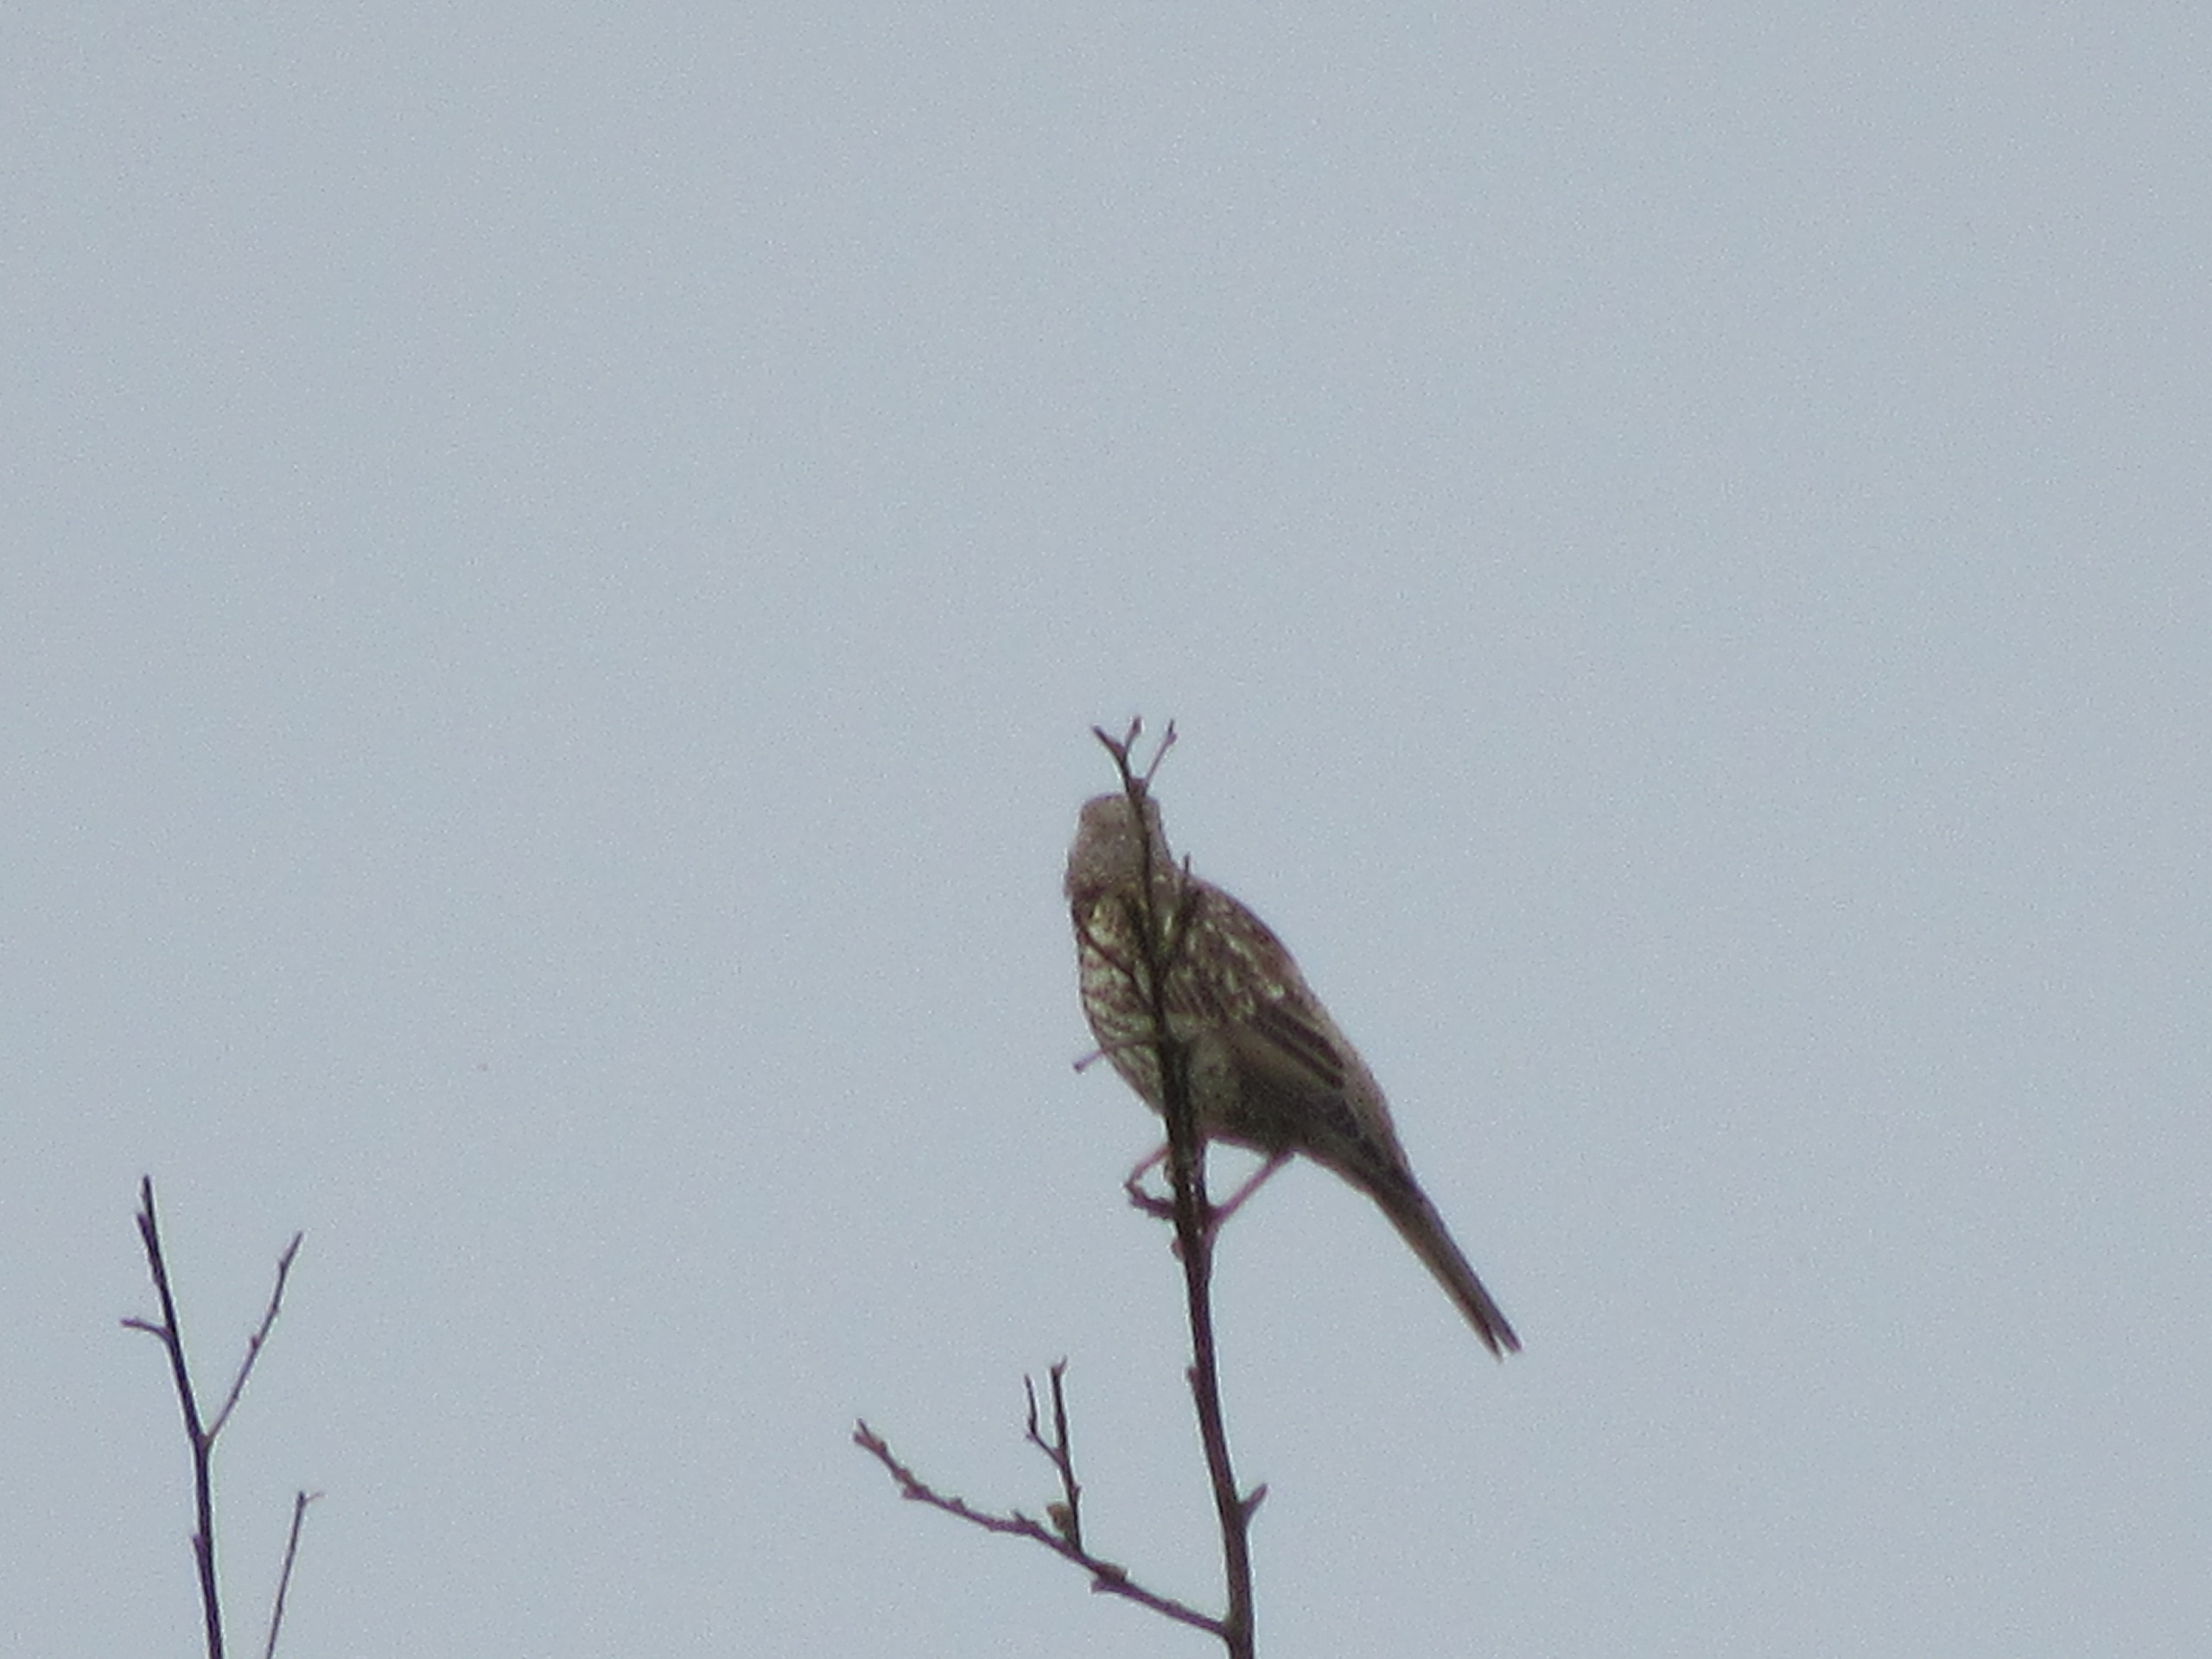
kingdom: Animalia
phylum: Chordata
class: Aves
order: Passeriformes
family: Turdidae
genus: Turdus
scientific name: Turdus viscivorus
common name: Misteldrossel
